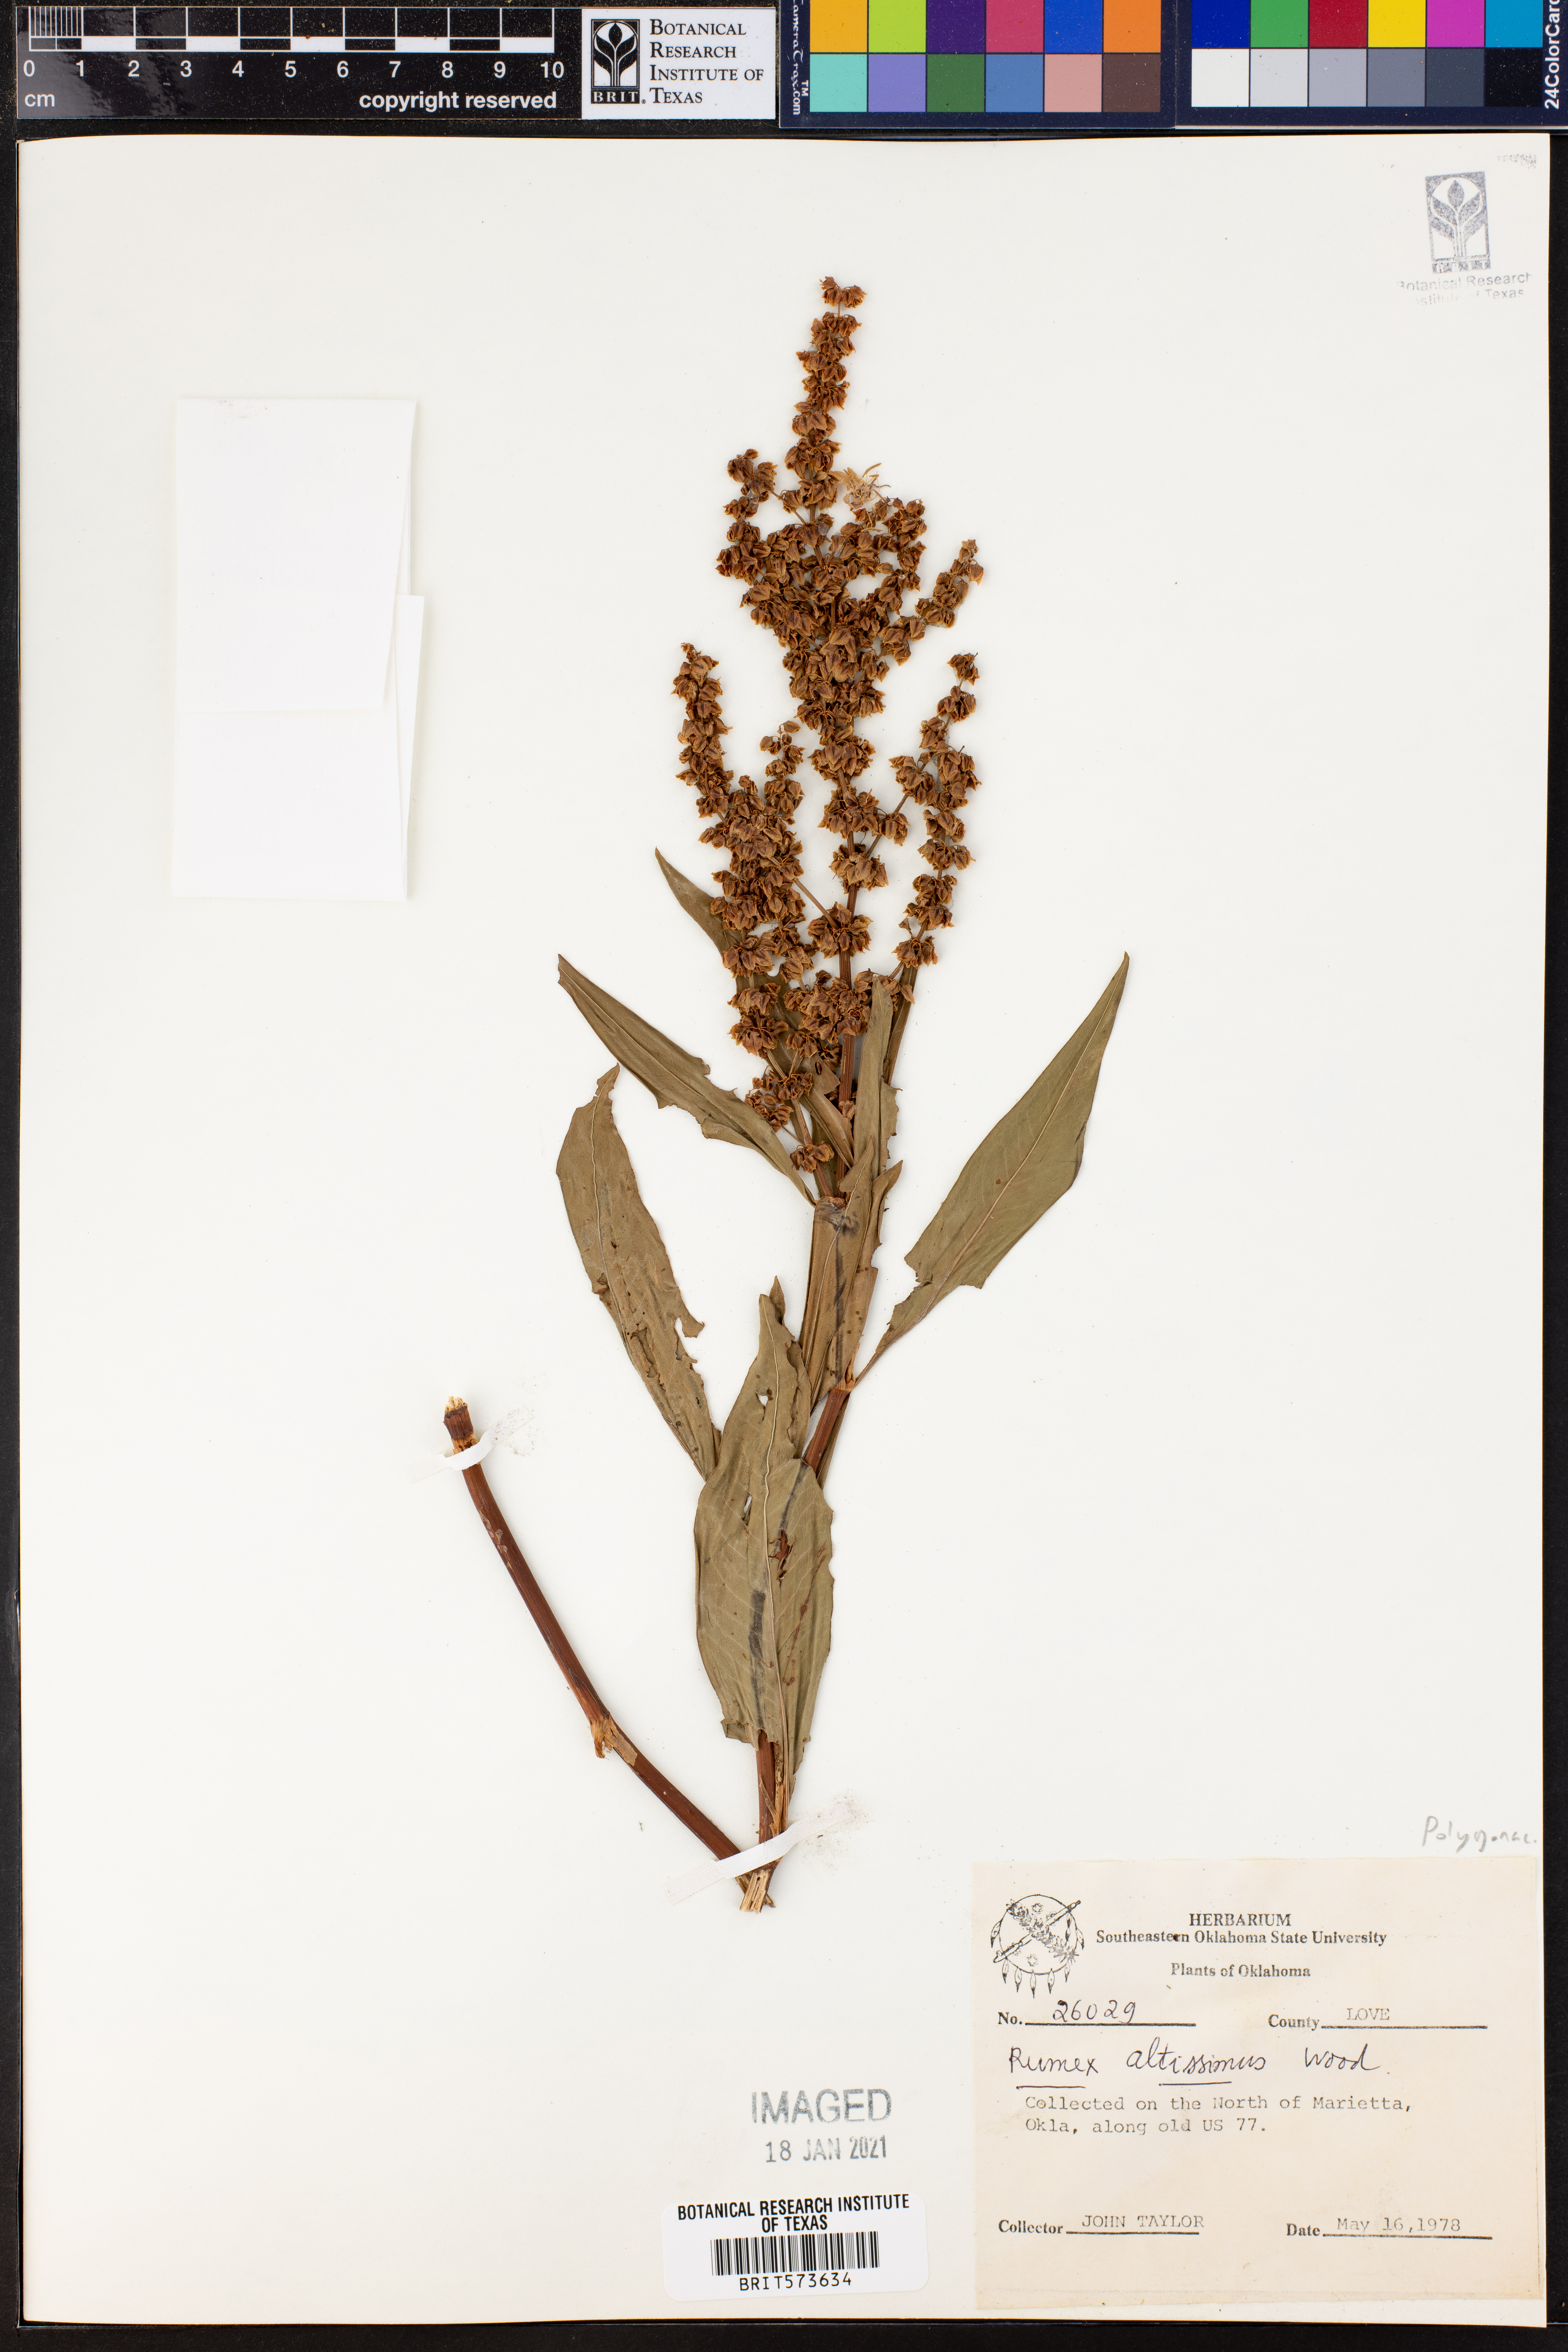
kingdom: Plantae
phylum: Tracheophyta
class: Magnoliopsida
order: Caryophyllales
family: Polygonaceae
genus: Rumex
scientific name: Rumex altissimus
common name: Smooth dock
